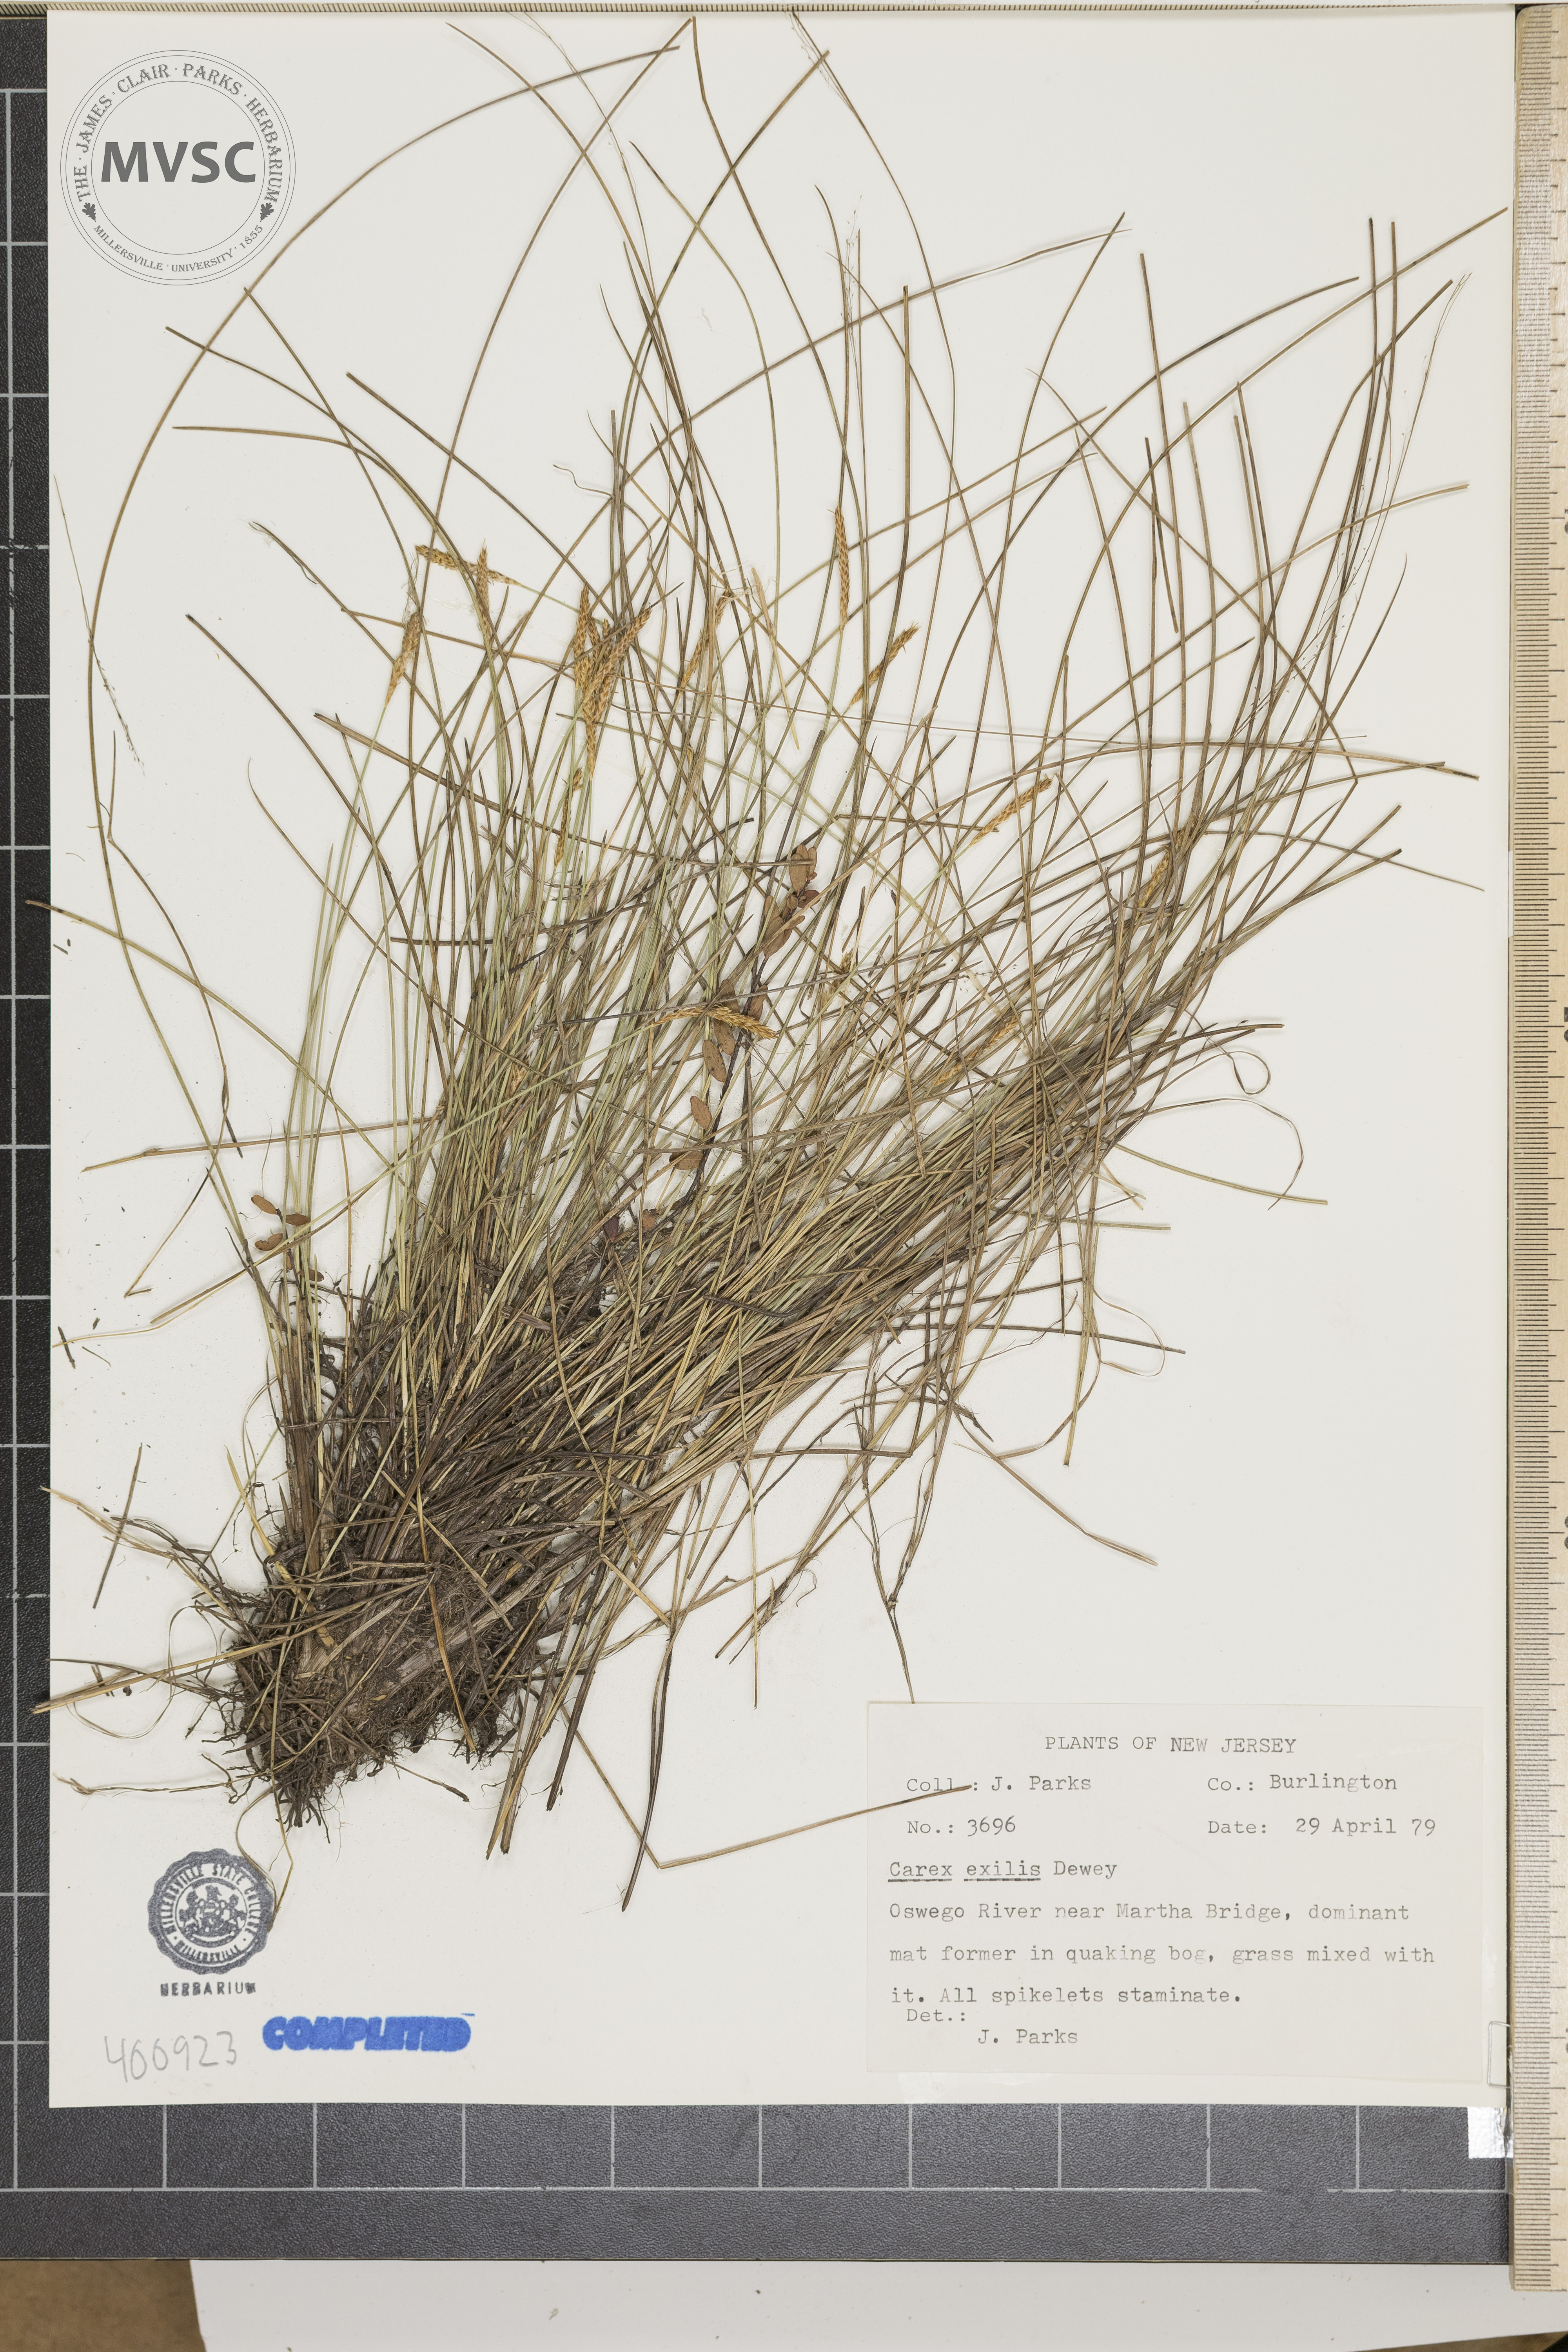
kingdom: Plantae
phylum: Tracheophyta
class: Liliopsida
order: Poales
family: Cyperaceae
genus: Carex
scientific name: Carex exilis
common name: sedge
